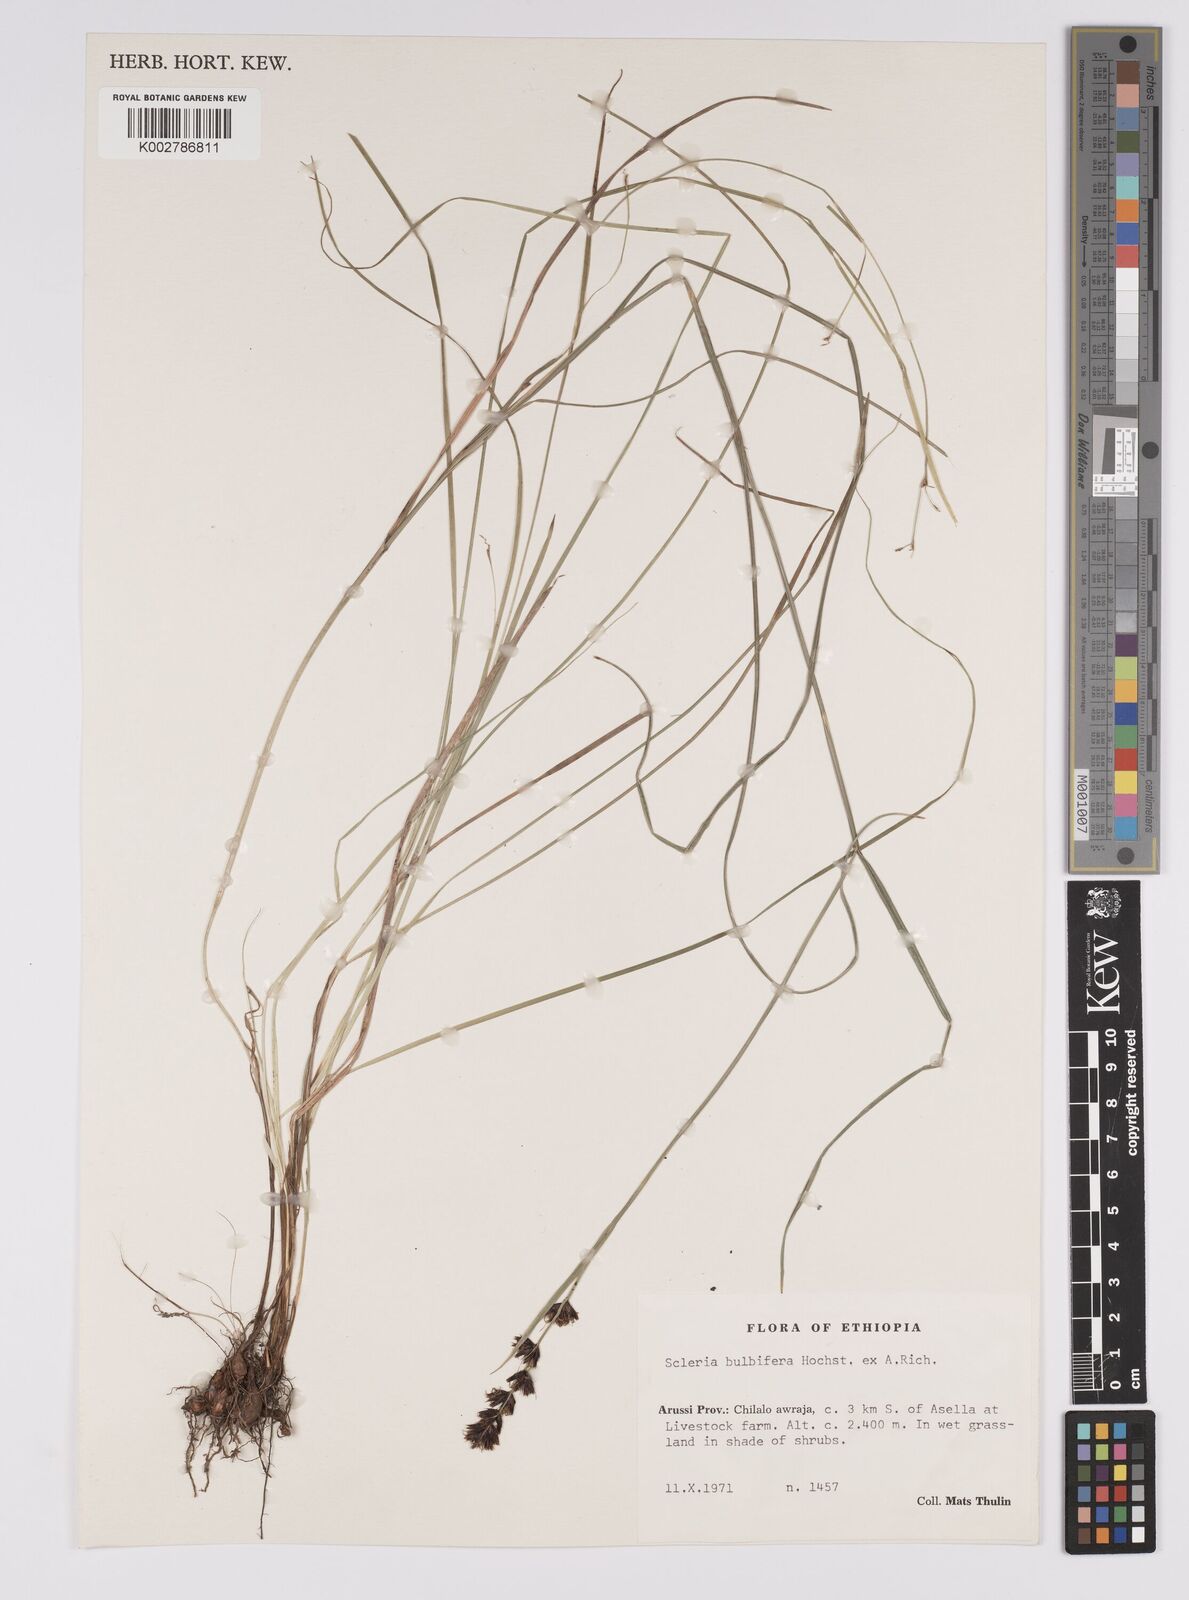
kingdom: Plantae
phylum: Tracheophyta
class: Liliopsida
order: Poales
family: Cyperaceae
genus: Scleria
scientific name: Scleria bulbifera
